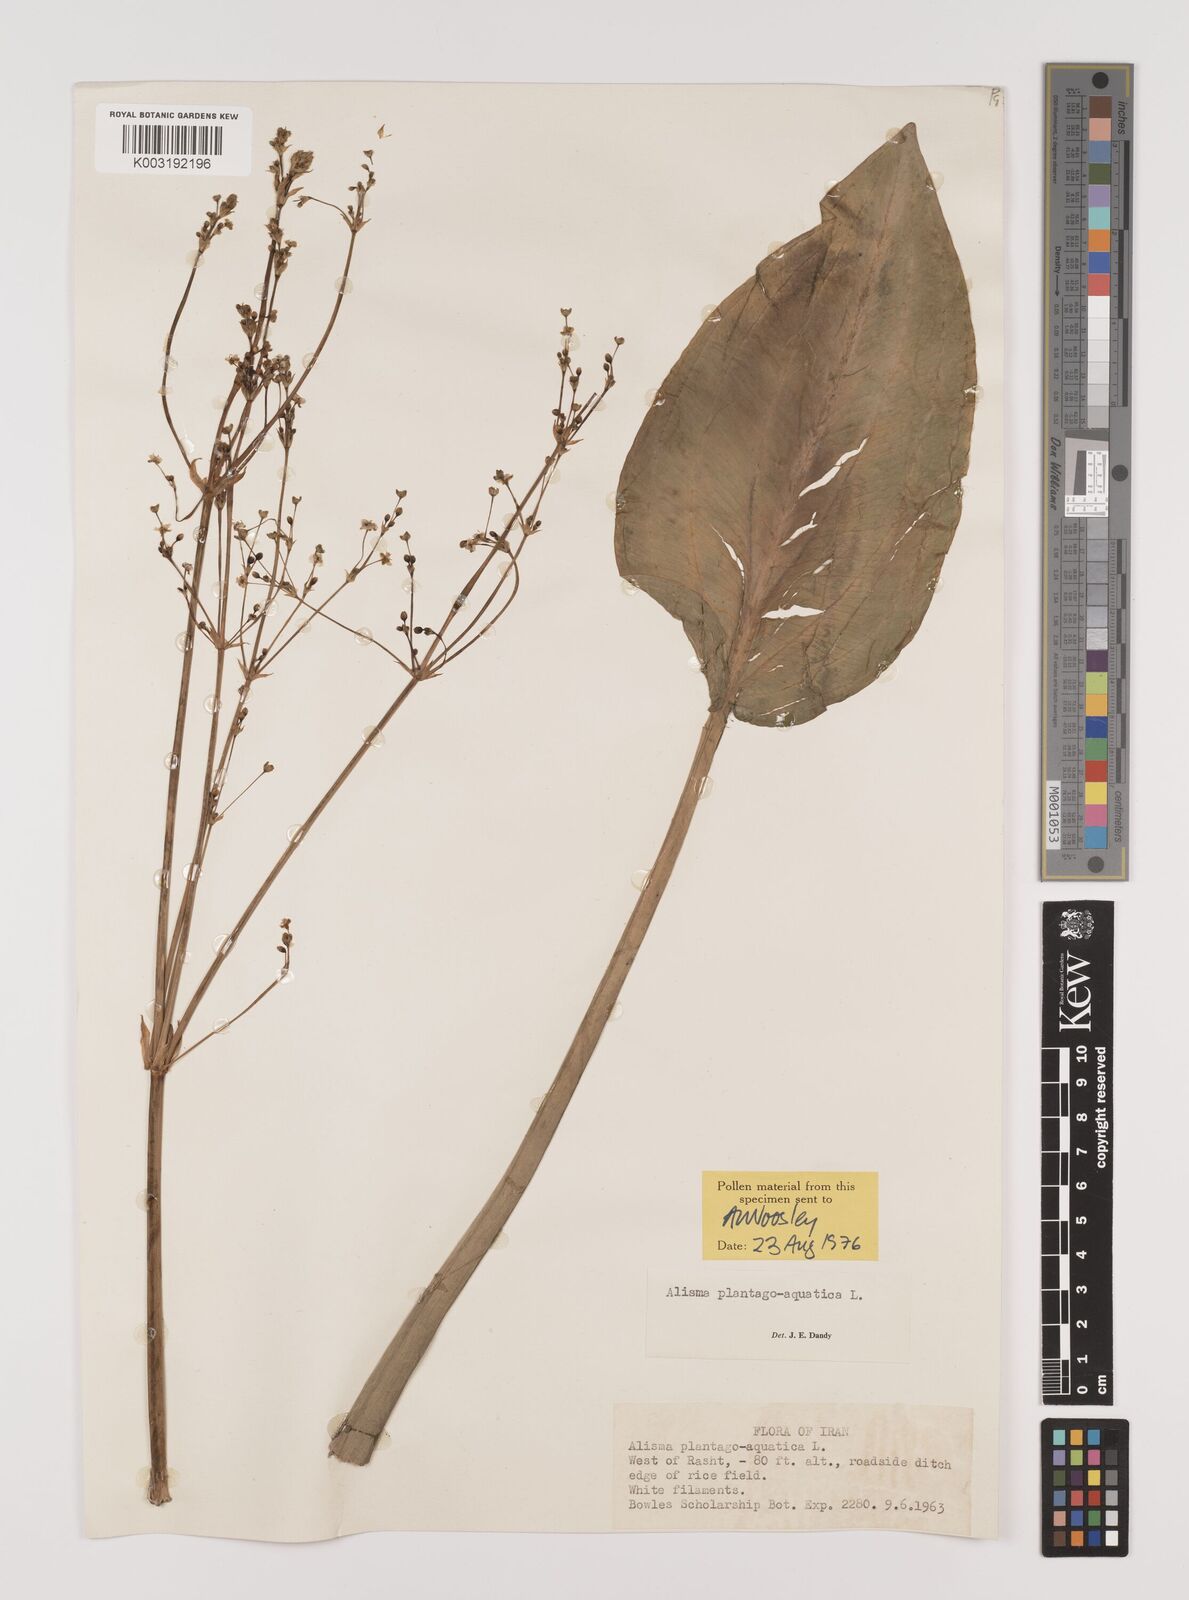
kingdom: Plantae
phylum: Tracheophyta
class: Liliopsida
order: Alismatales
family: Alismataceae
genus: Alisma
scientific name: Alisma plantago-aquatica
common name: Water-plantain
